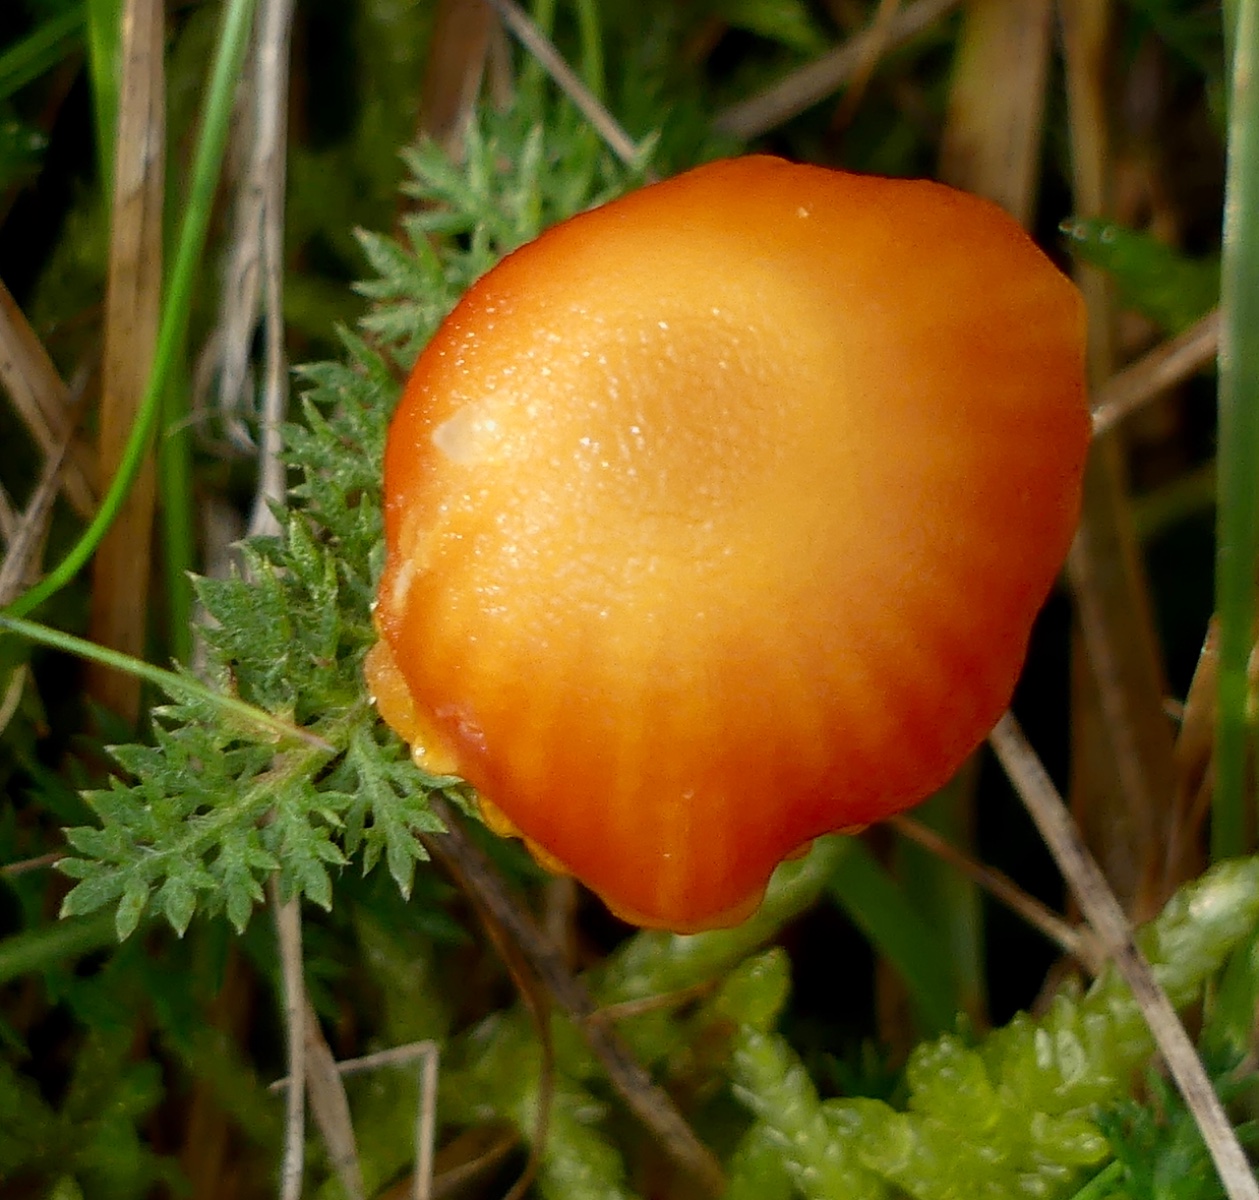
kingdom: Fungi
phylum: Basidiomycota
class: Agaricomycetes
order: Agaricales
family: Hygrophoraceae
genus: Hygrocybe
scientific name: Hygrocybe insipida
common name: liden vokshat
